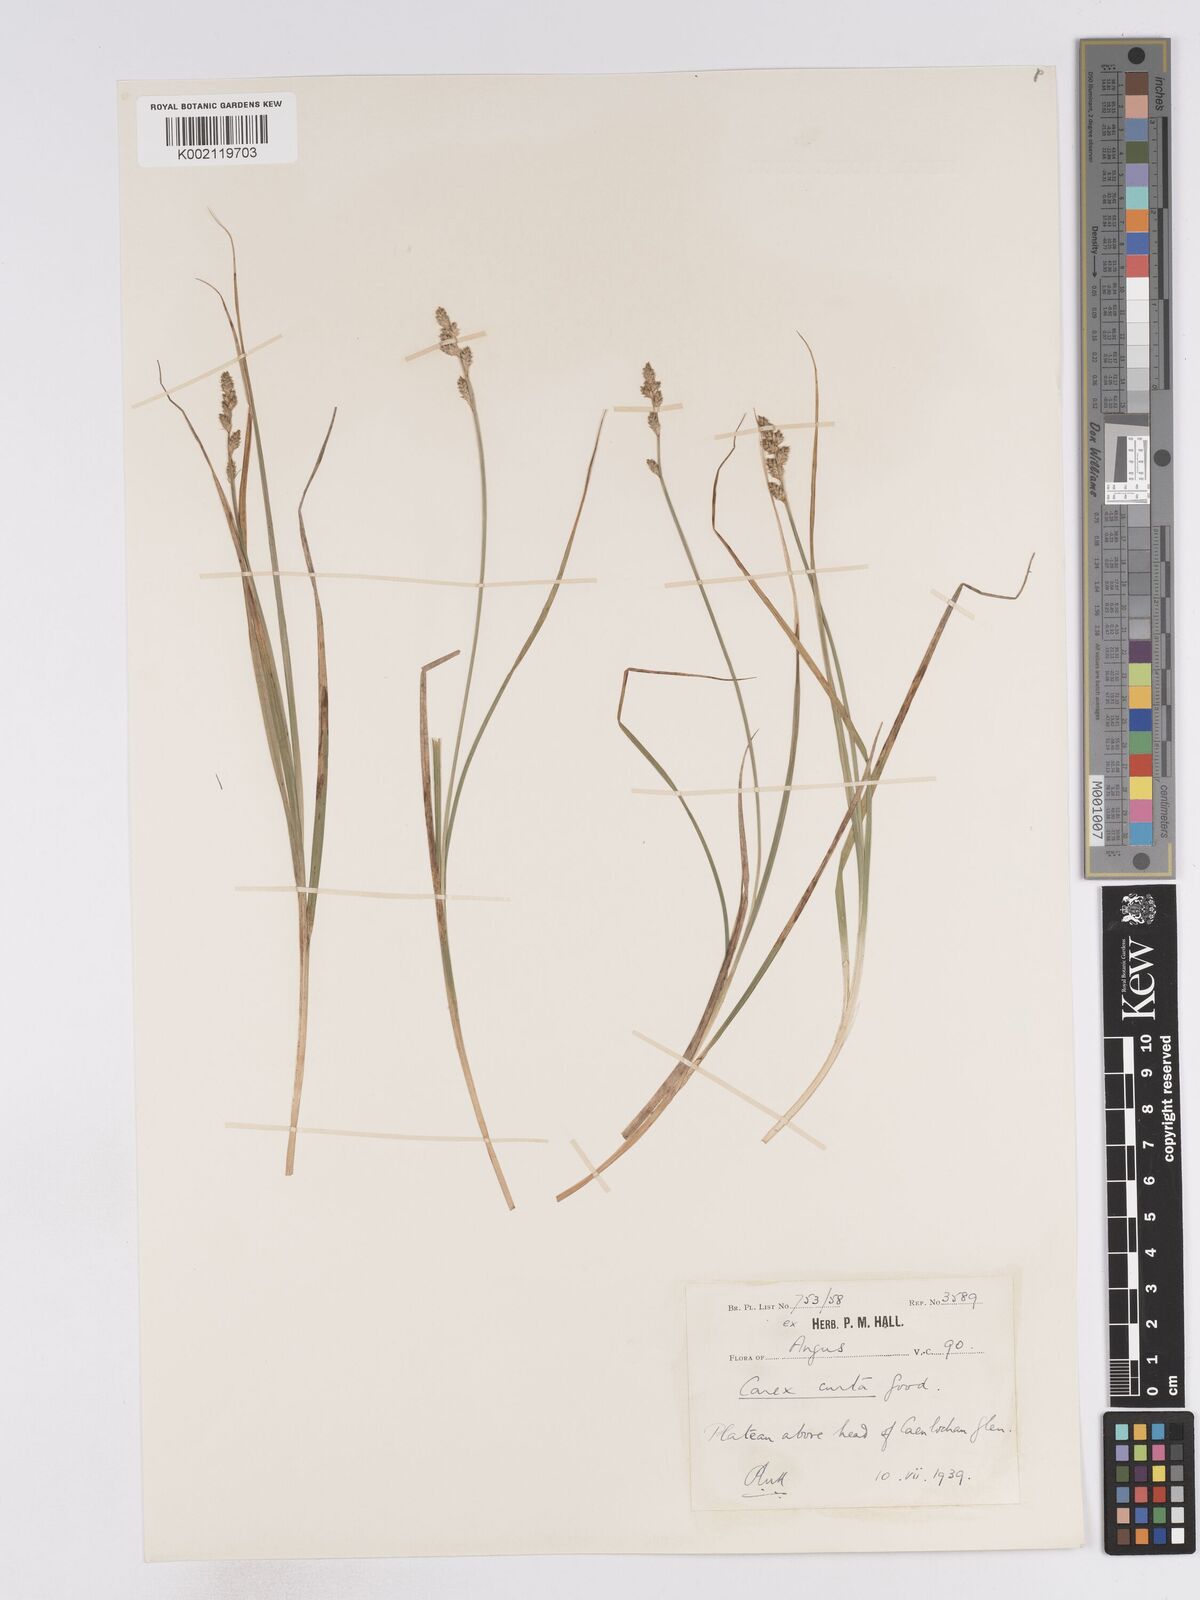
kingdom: Plantae
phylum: Tracheophyta
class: Liliopsida
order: Poales
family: Cyperaceae
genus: Carex
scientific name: Carex curta
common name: White sedge
